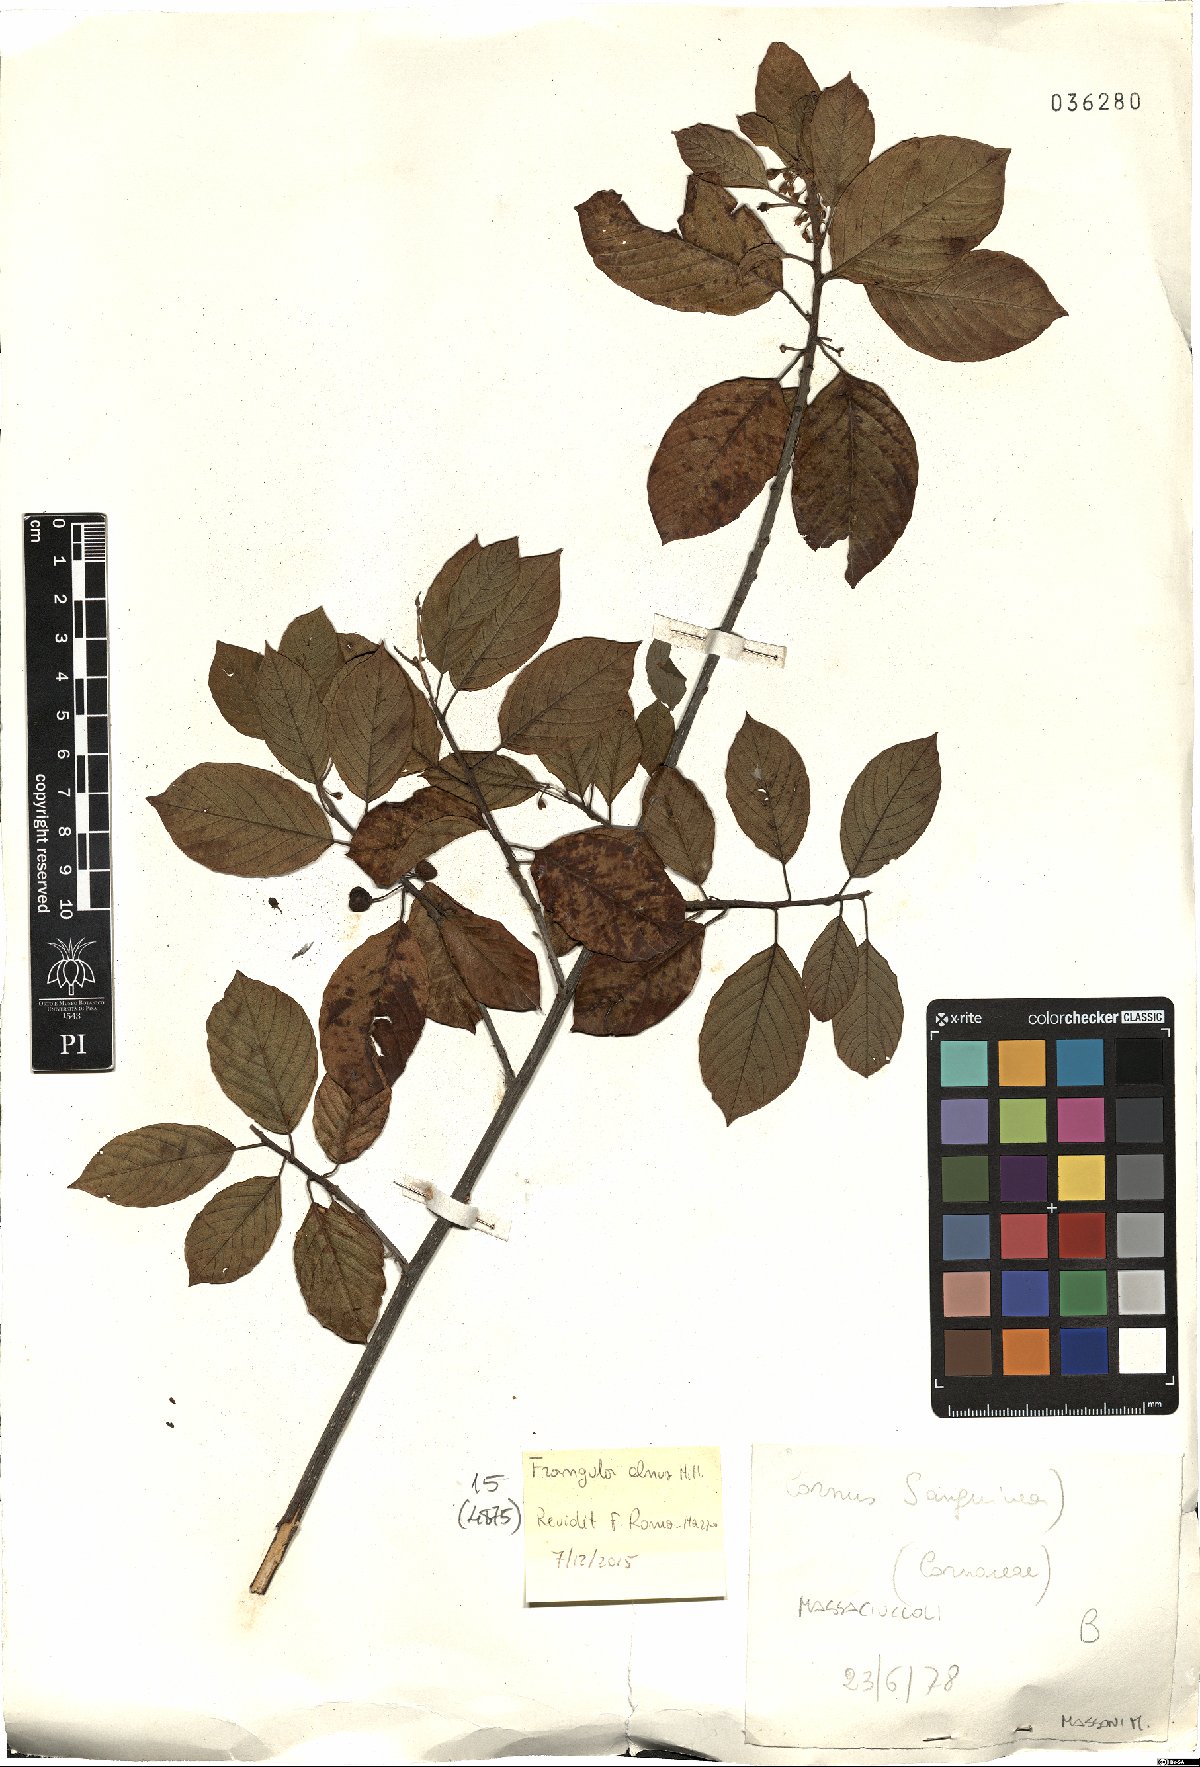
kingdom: Plantae
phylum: Tracheophyta
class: Magnoliopsida
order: Rosales
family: Rhamnaceae
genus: Frangula
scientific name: Frangula alnus
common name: Alder buckthorn
